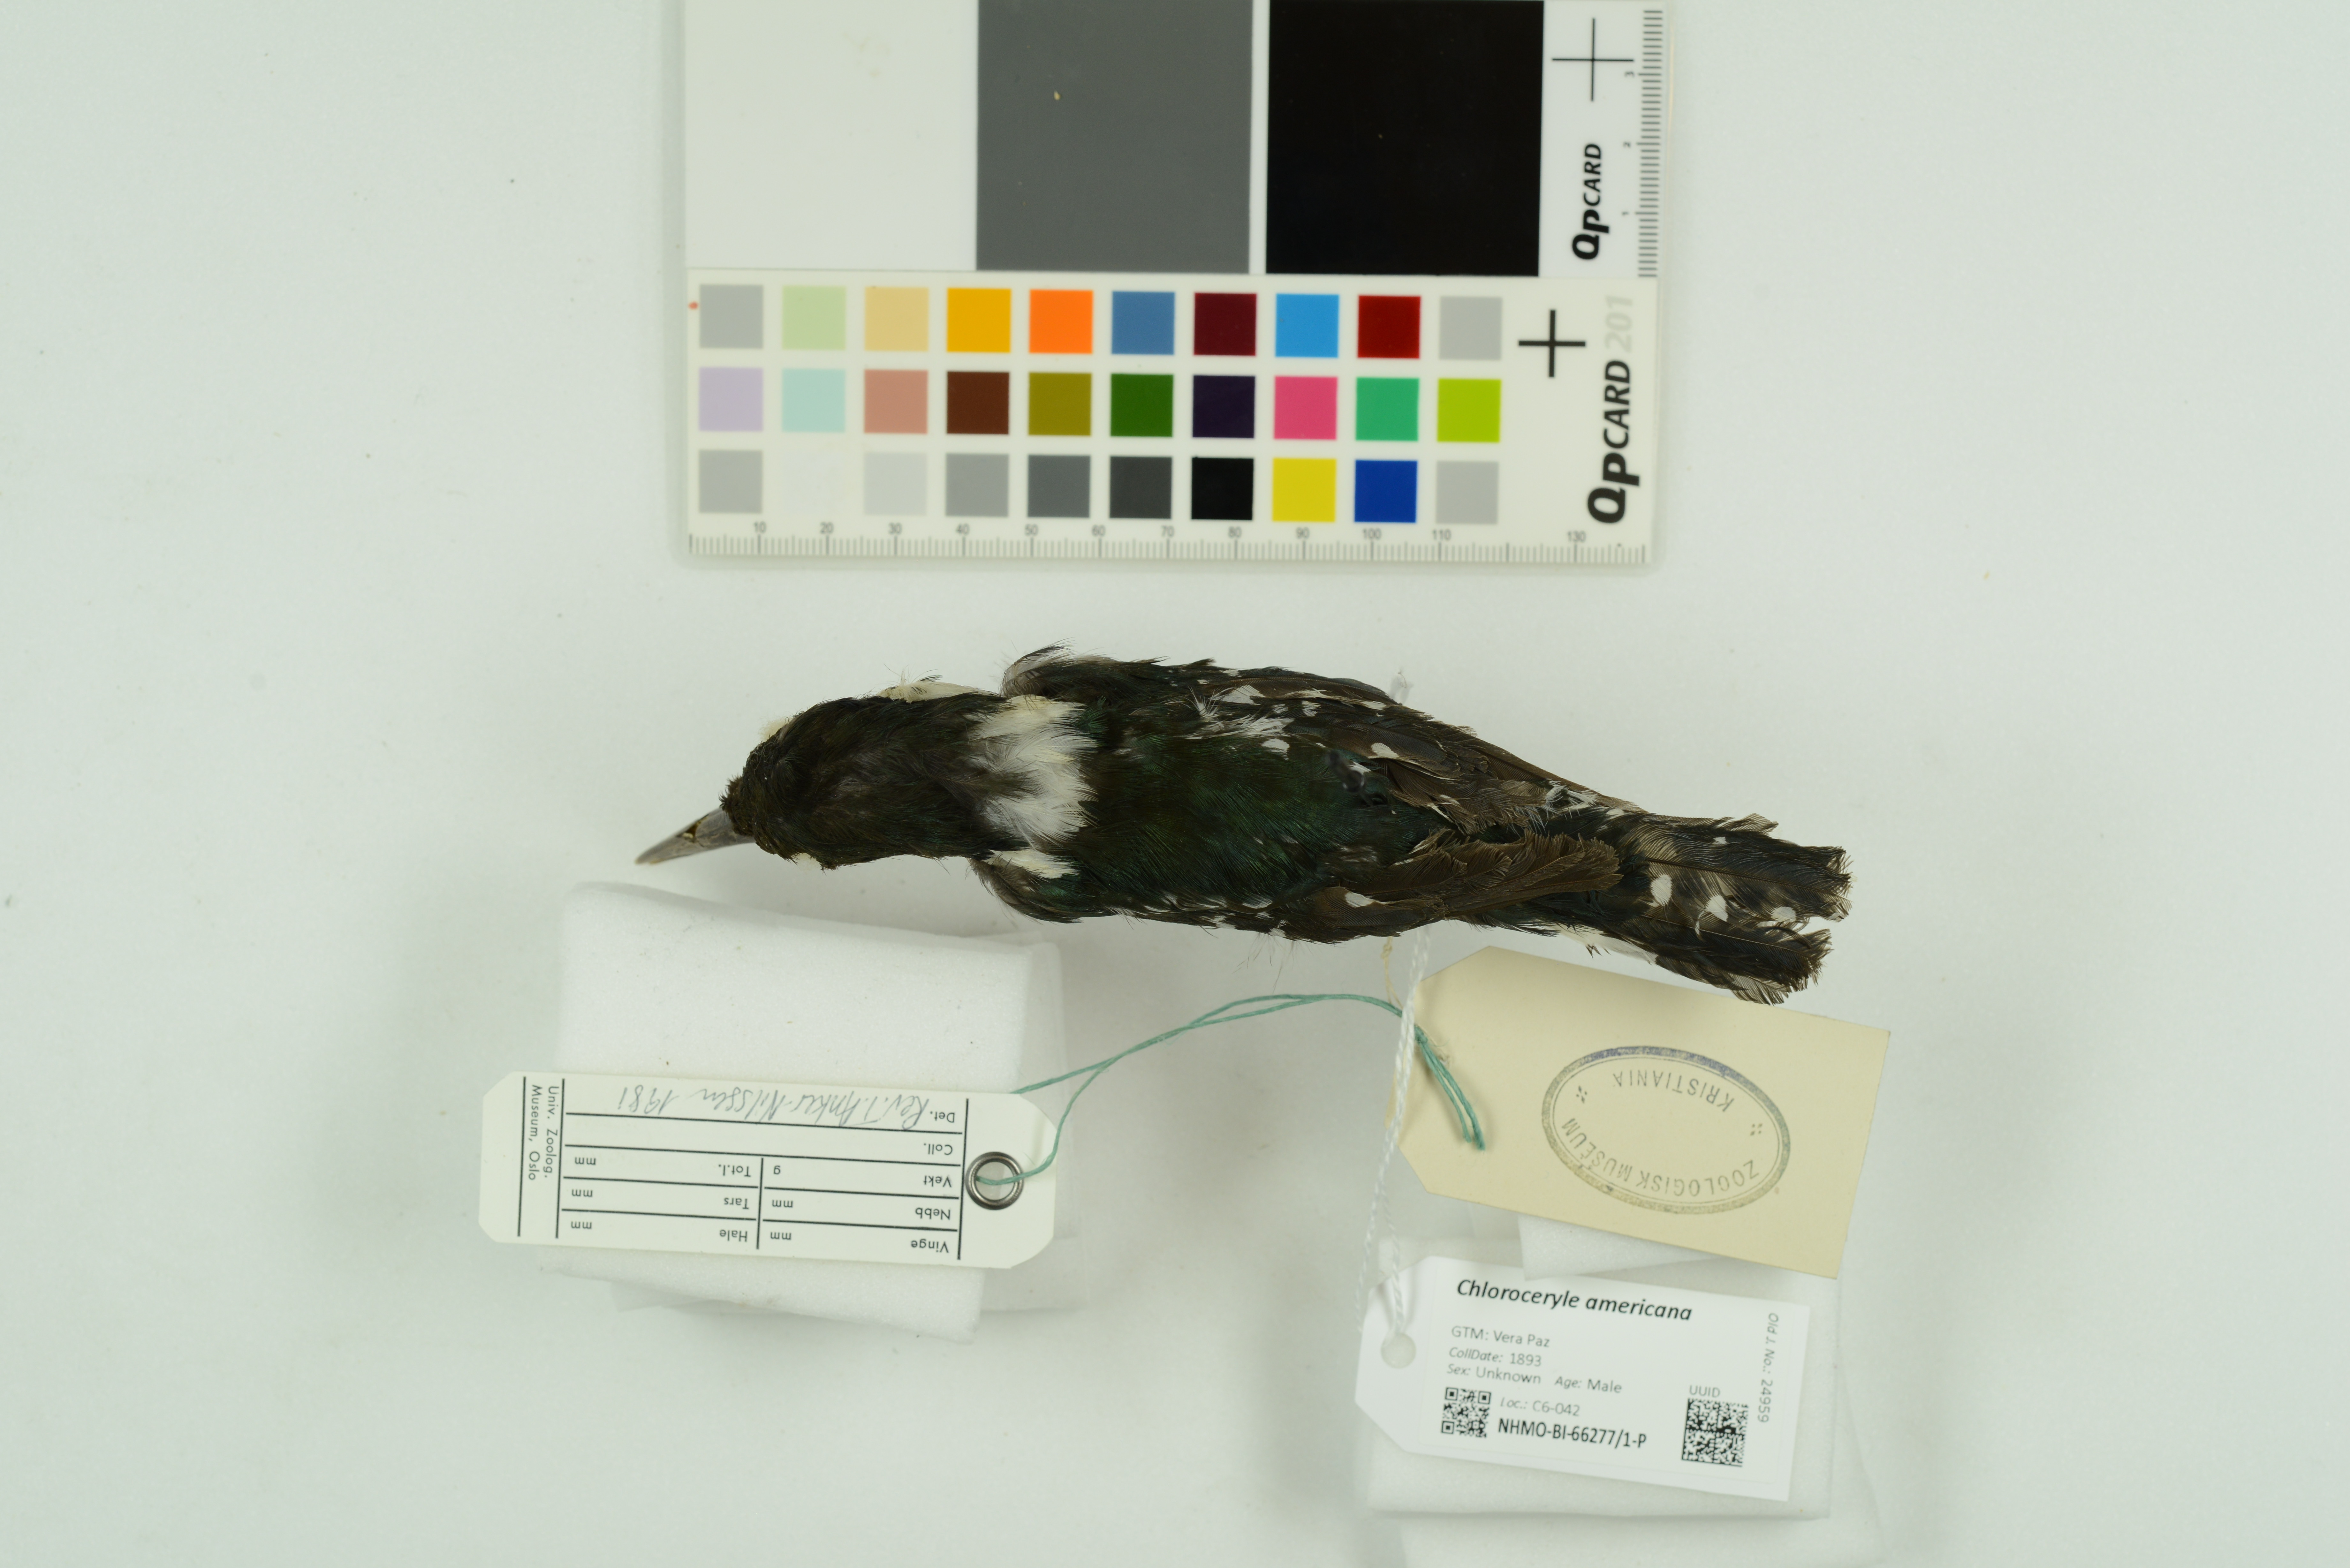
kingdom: Animalia
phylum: Chordata
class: Aves
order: Coraciiformes
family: Alcedinidae
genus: Chloroceryle
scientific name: Chloroceryle americana
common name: Green kingfisher
